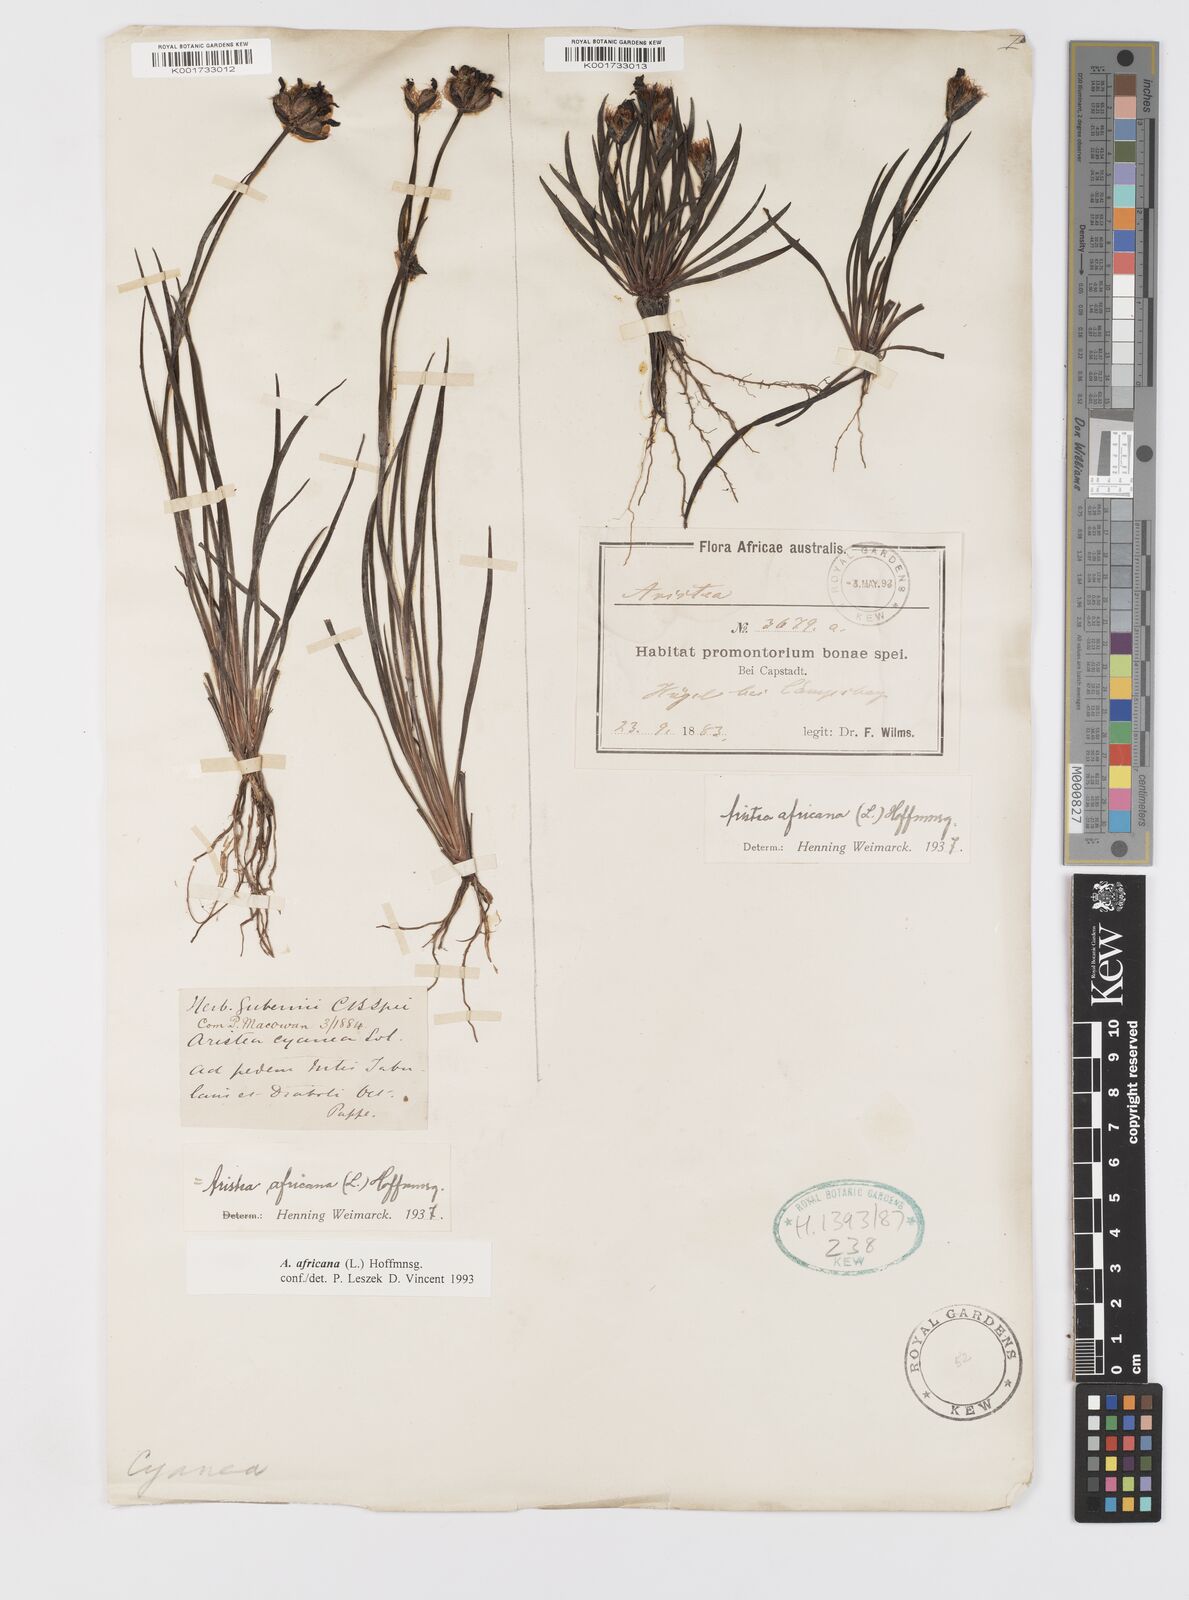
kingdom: Plantae
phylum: Tracheophyta
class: Liliopsida
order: Asparagales
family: Iridaceae
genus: Aristea
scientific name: Aristea africana
